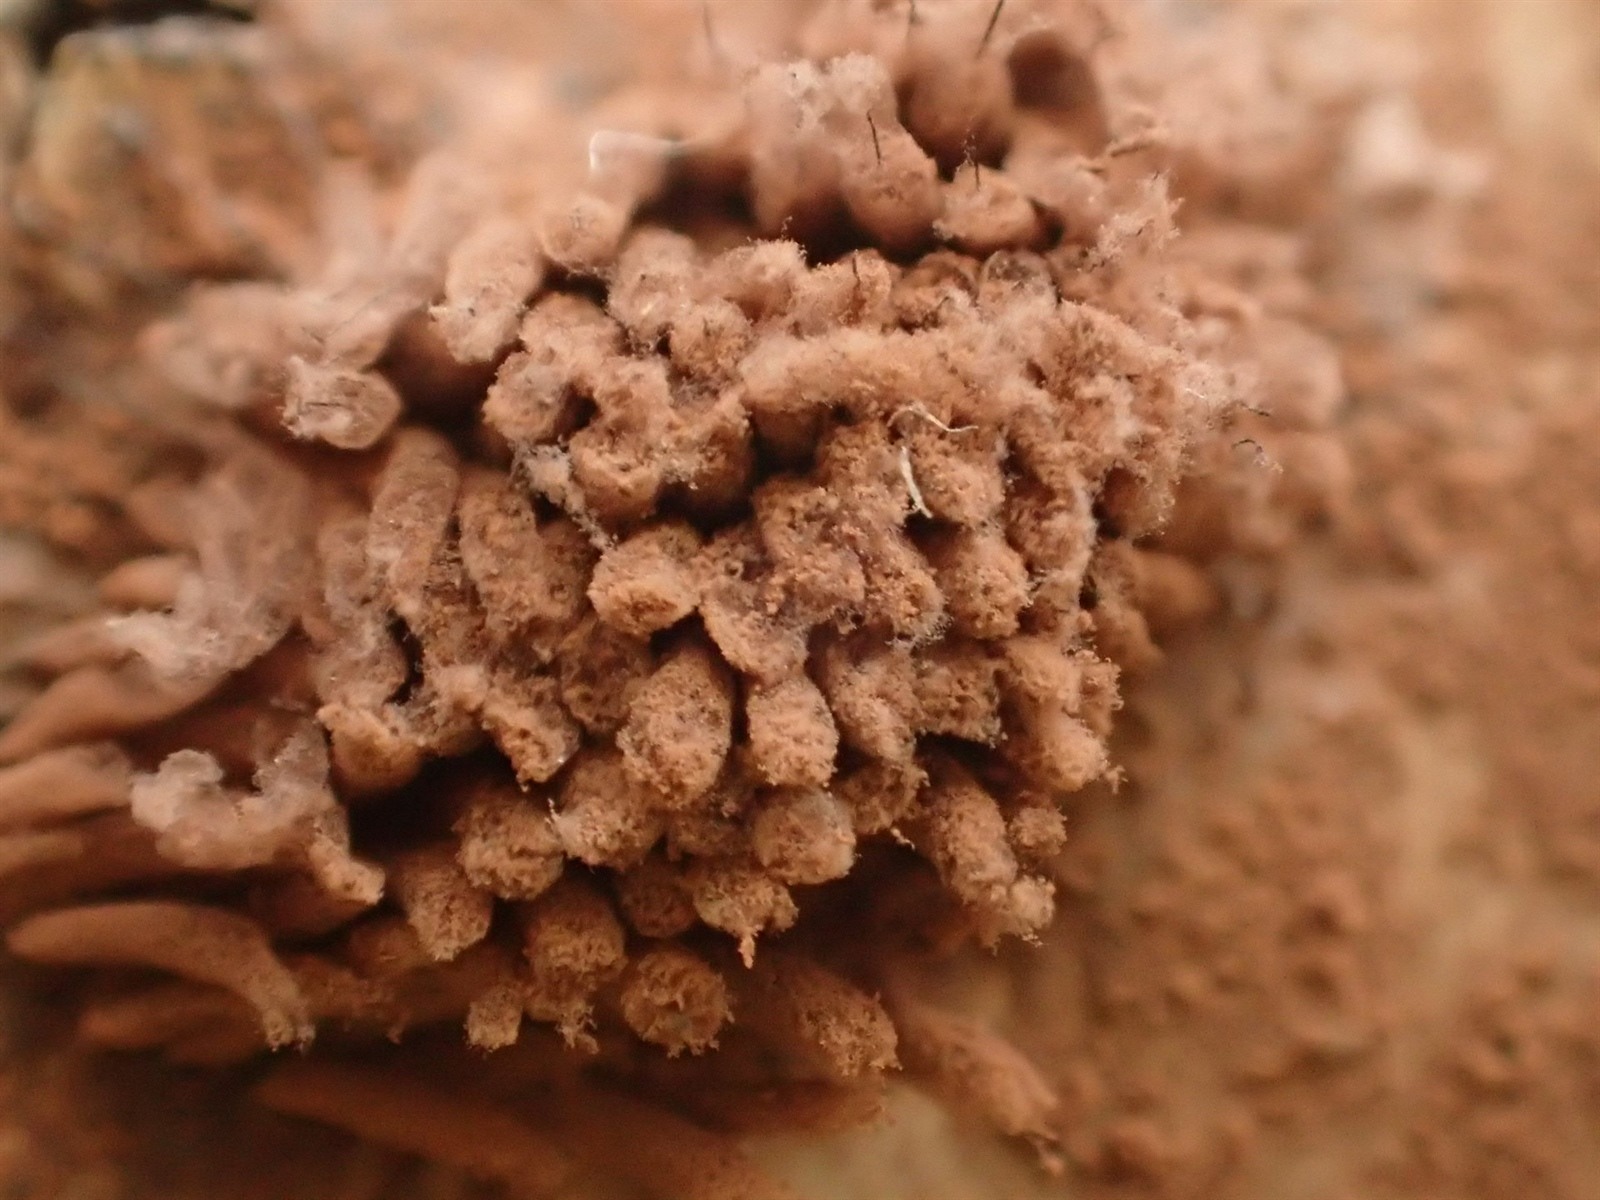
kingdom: Protozoa
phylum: Mycetozoa
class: Myxomycetes
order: Stemonitidales
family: Stemonitidaceae
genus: Stemonitis
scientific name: Stemonitis pallida
